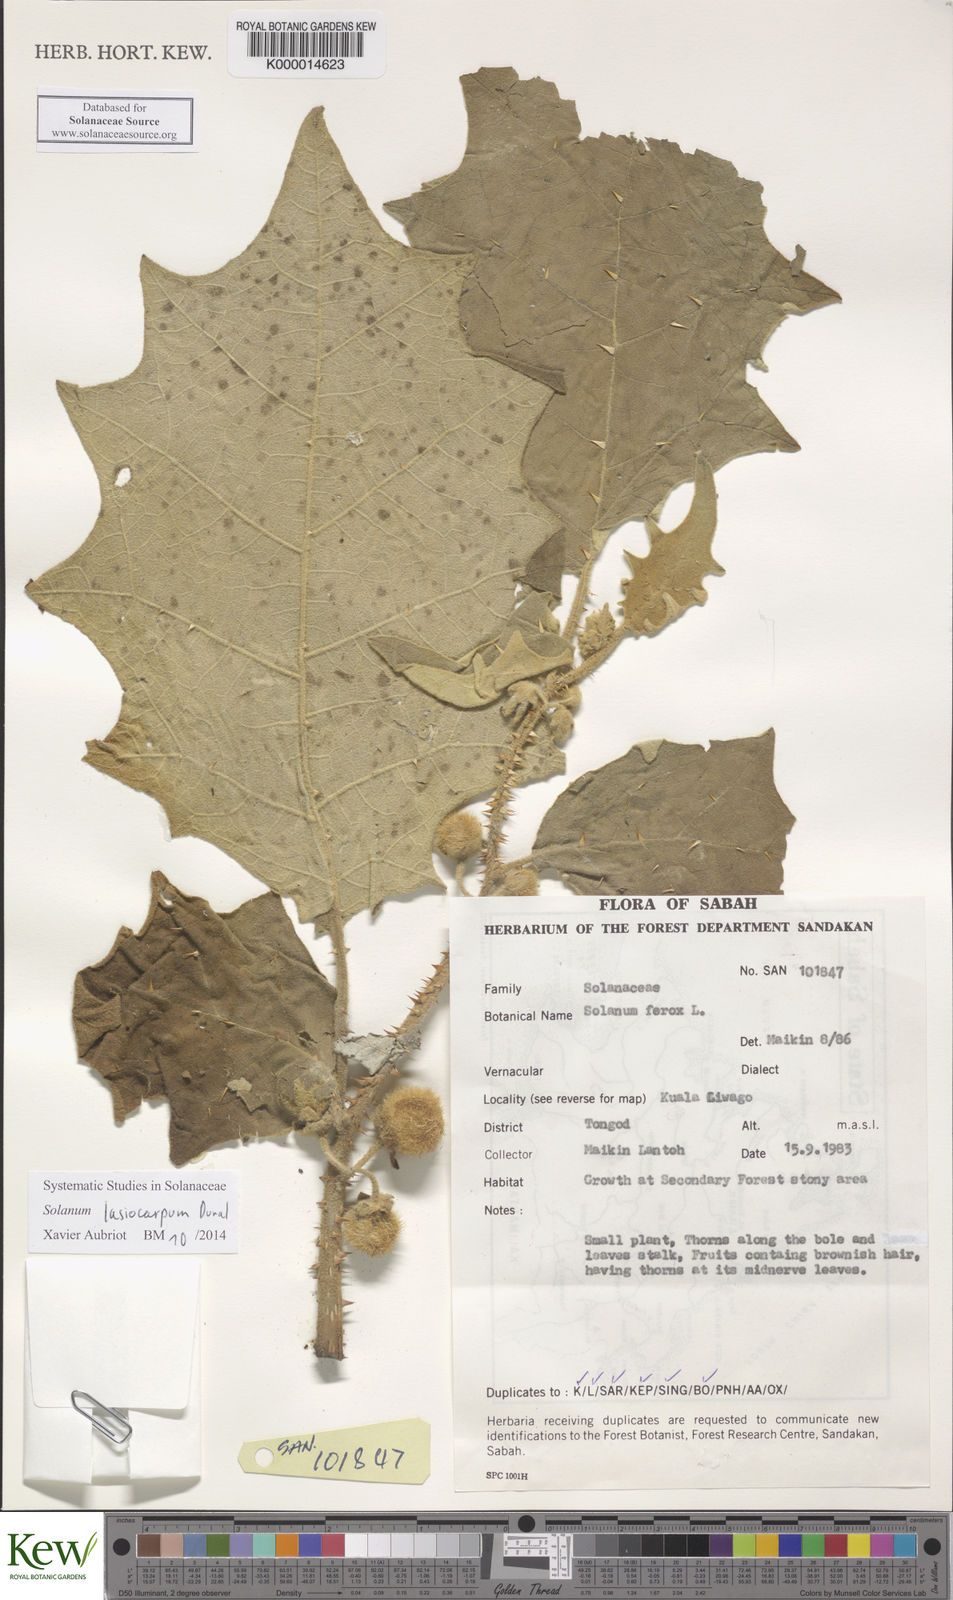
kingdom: Plantae
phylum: Tracheophyta
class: Magnoliopsida
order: Solanales
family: Solanaceae
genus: Solanum
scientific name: Solanum lasiocarpum
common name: Indian nightshade
